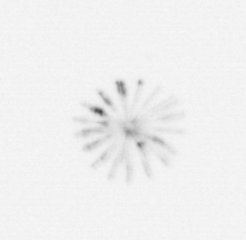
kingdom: Chromista
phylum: Ochrophyta
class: Bacillariophyceae
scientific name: Bacillariophyceae
